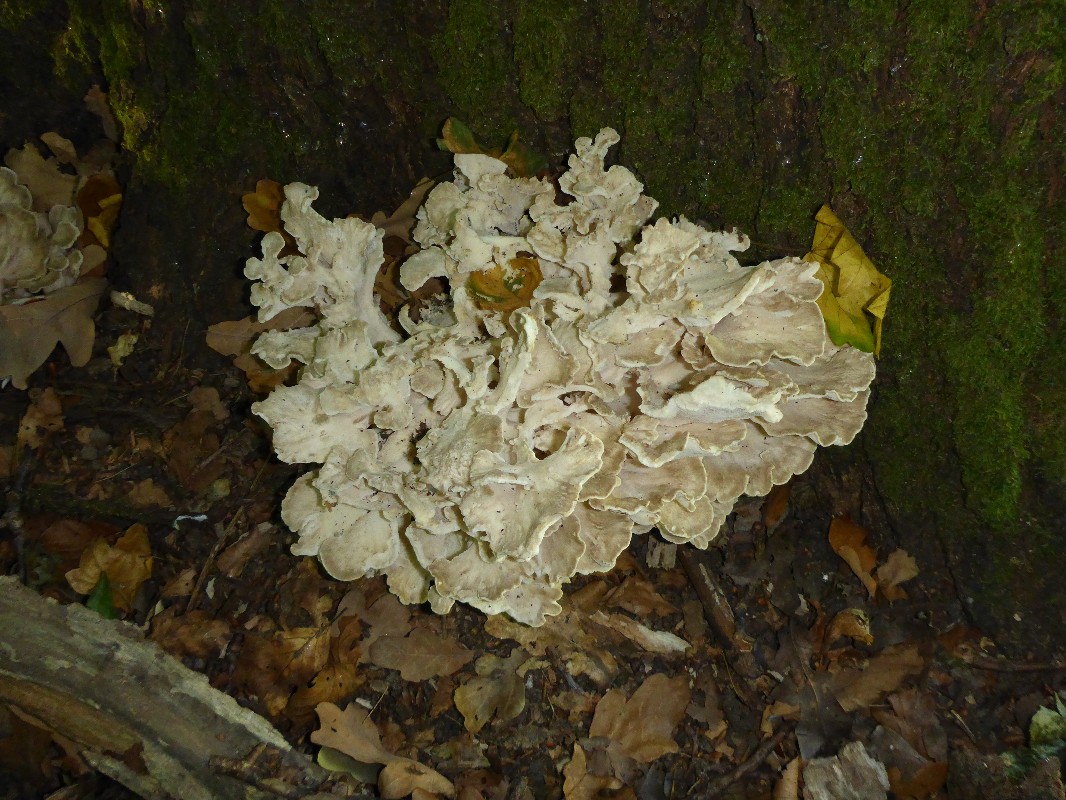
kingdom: Fungi
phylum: Basidiomycota
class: Agaricomycetes
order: Polyporales
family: Grifolaceae
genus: Grifola
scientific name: Grifola frondosa
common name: tueporesvamp
